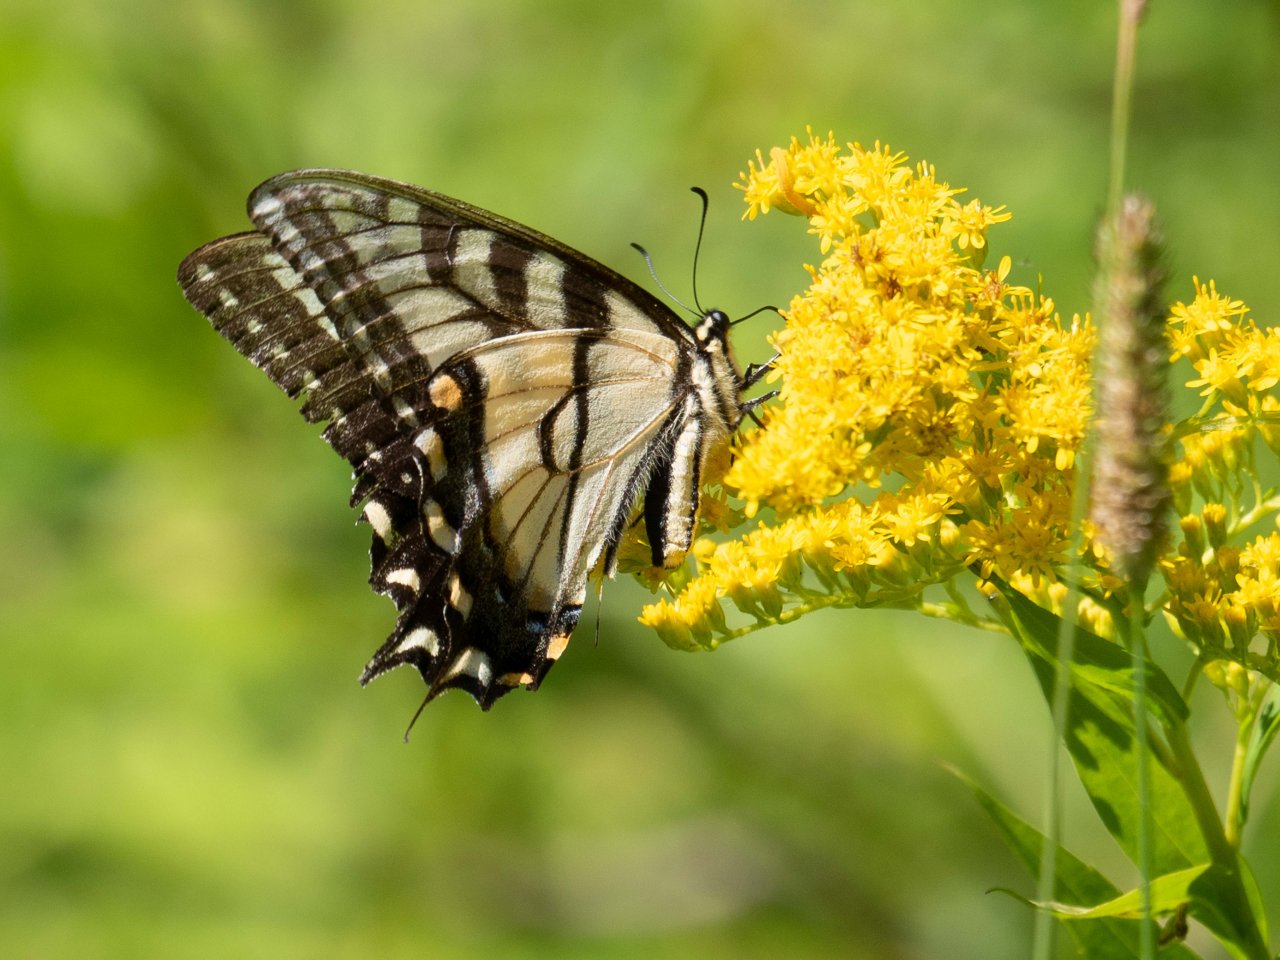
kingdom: Animalia
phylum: Arthropoda
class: Insecta
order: Lepidoptera
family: Papilionidae
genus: Pterourus
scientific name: Pterourus glaucus
